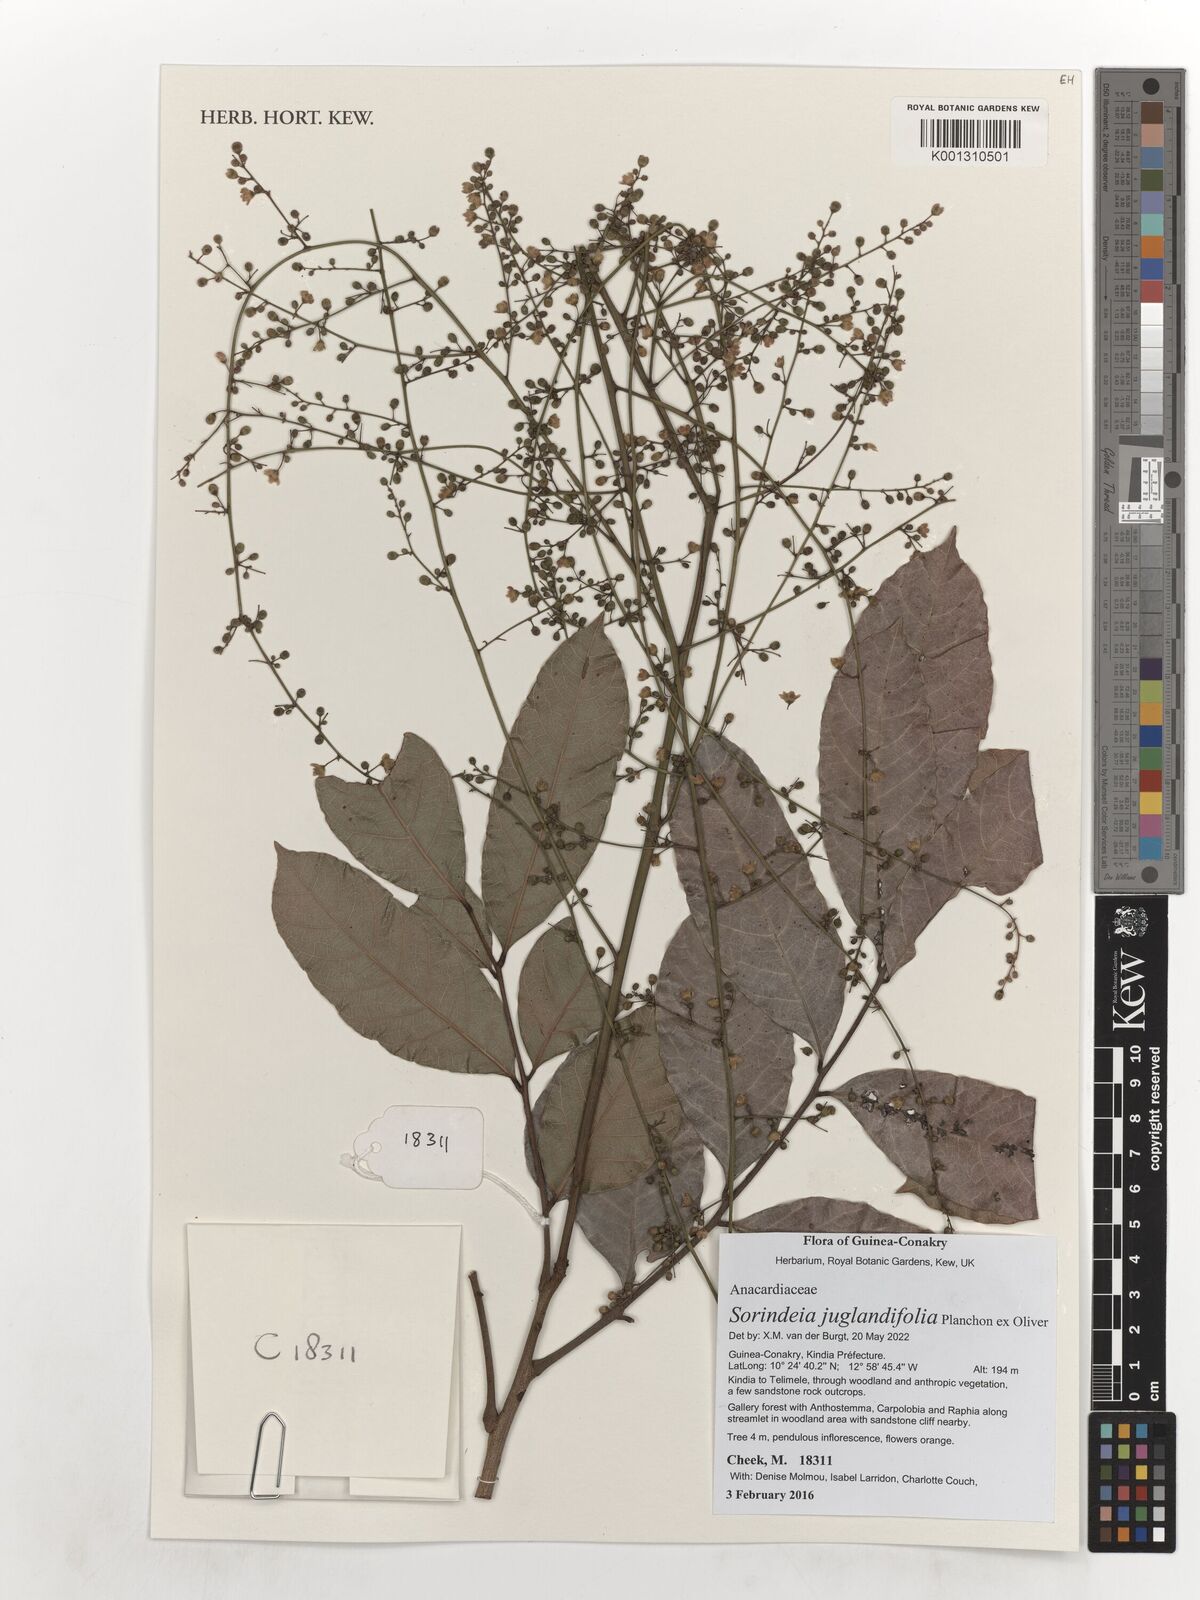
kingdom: Plantae
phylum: Tracheophyta
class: Magnoliopsida
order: Sapindales
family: Anacardiaceae
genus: Sorindeia
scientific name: Sorindeia juglandifolia
